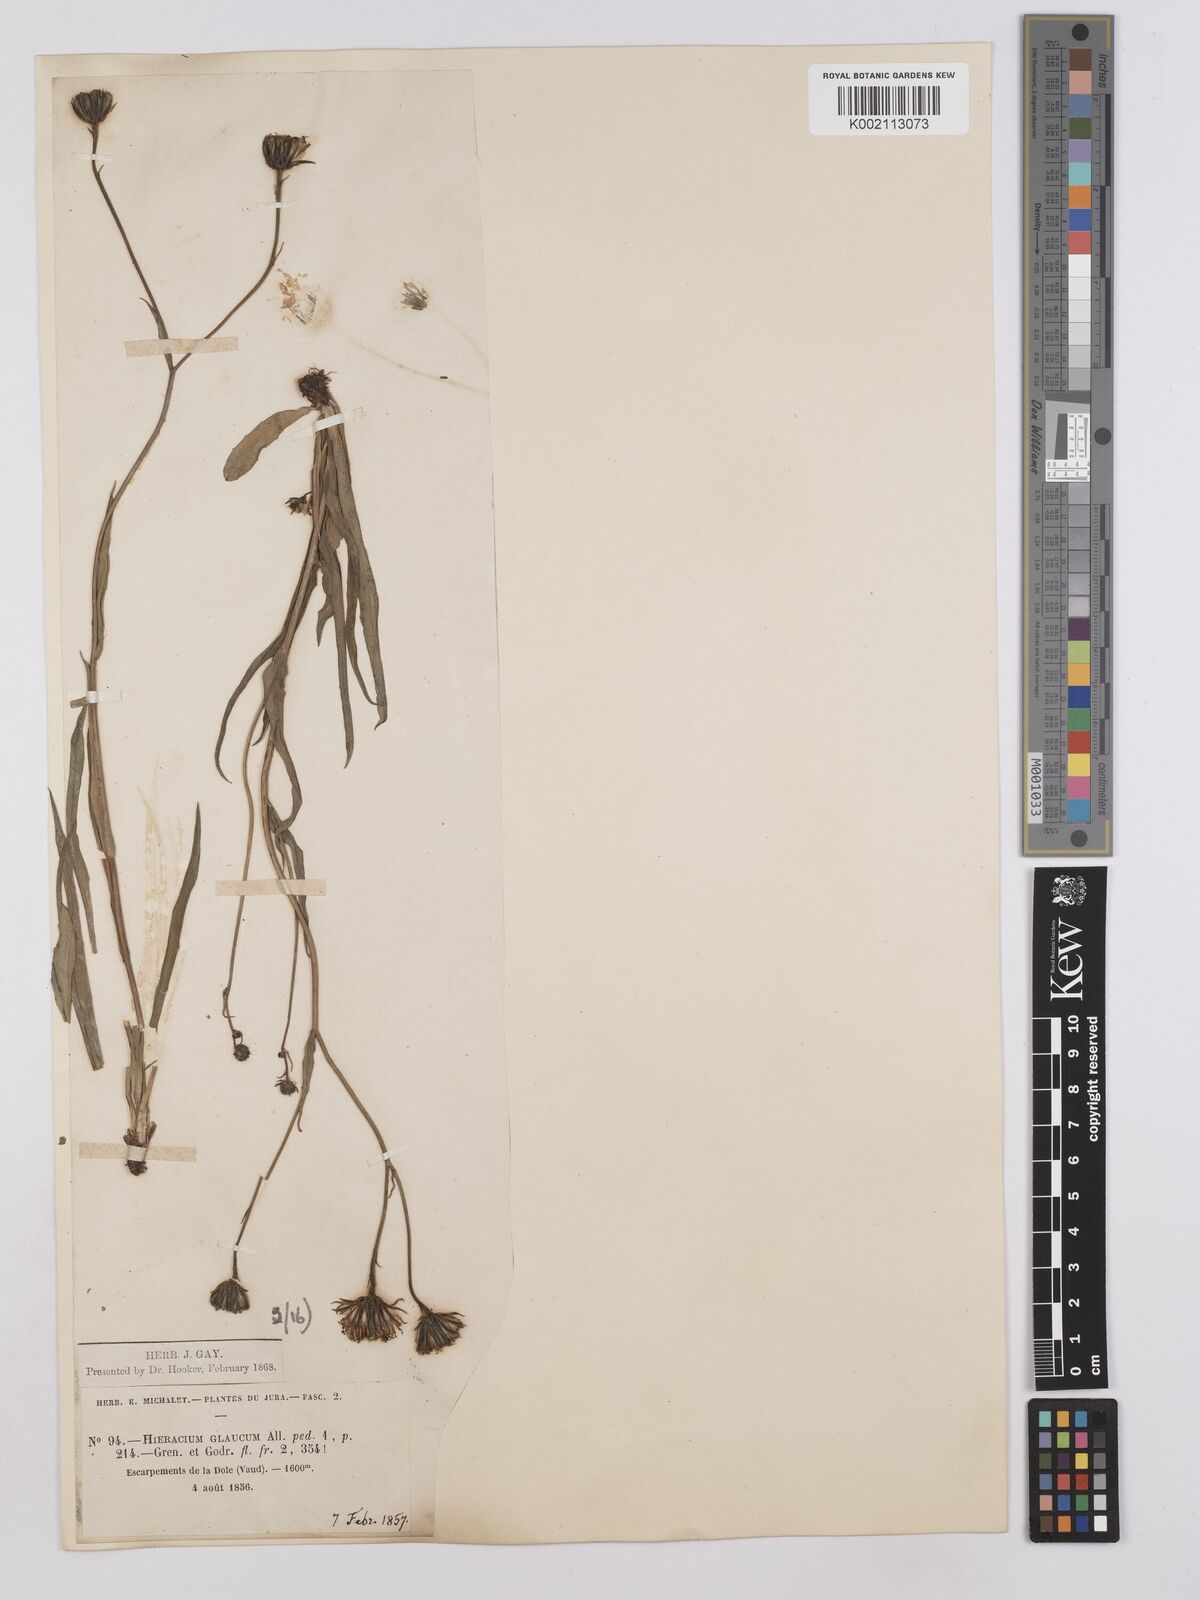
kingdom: Plantae
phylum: Tracheophyta
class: Magnoliopsida
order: Asterales
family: Asteraceae
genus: Hieracium
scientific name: Hieracium bupleuroides
